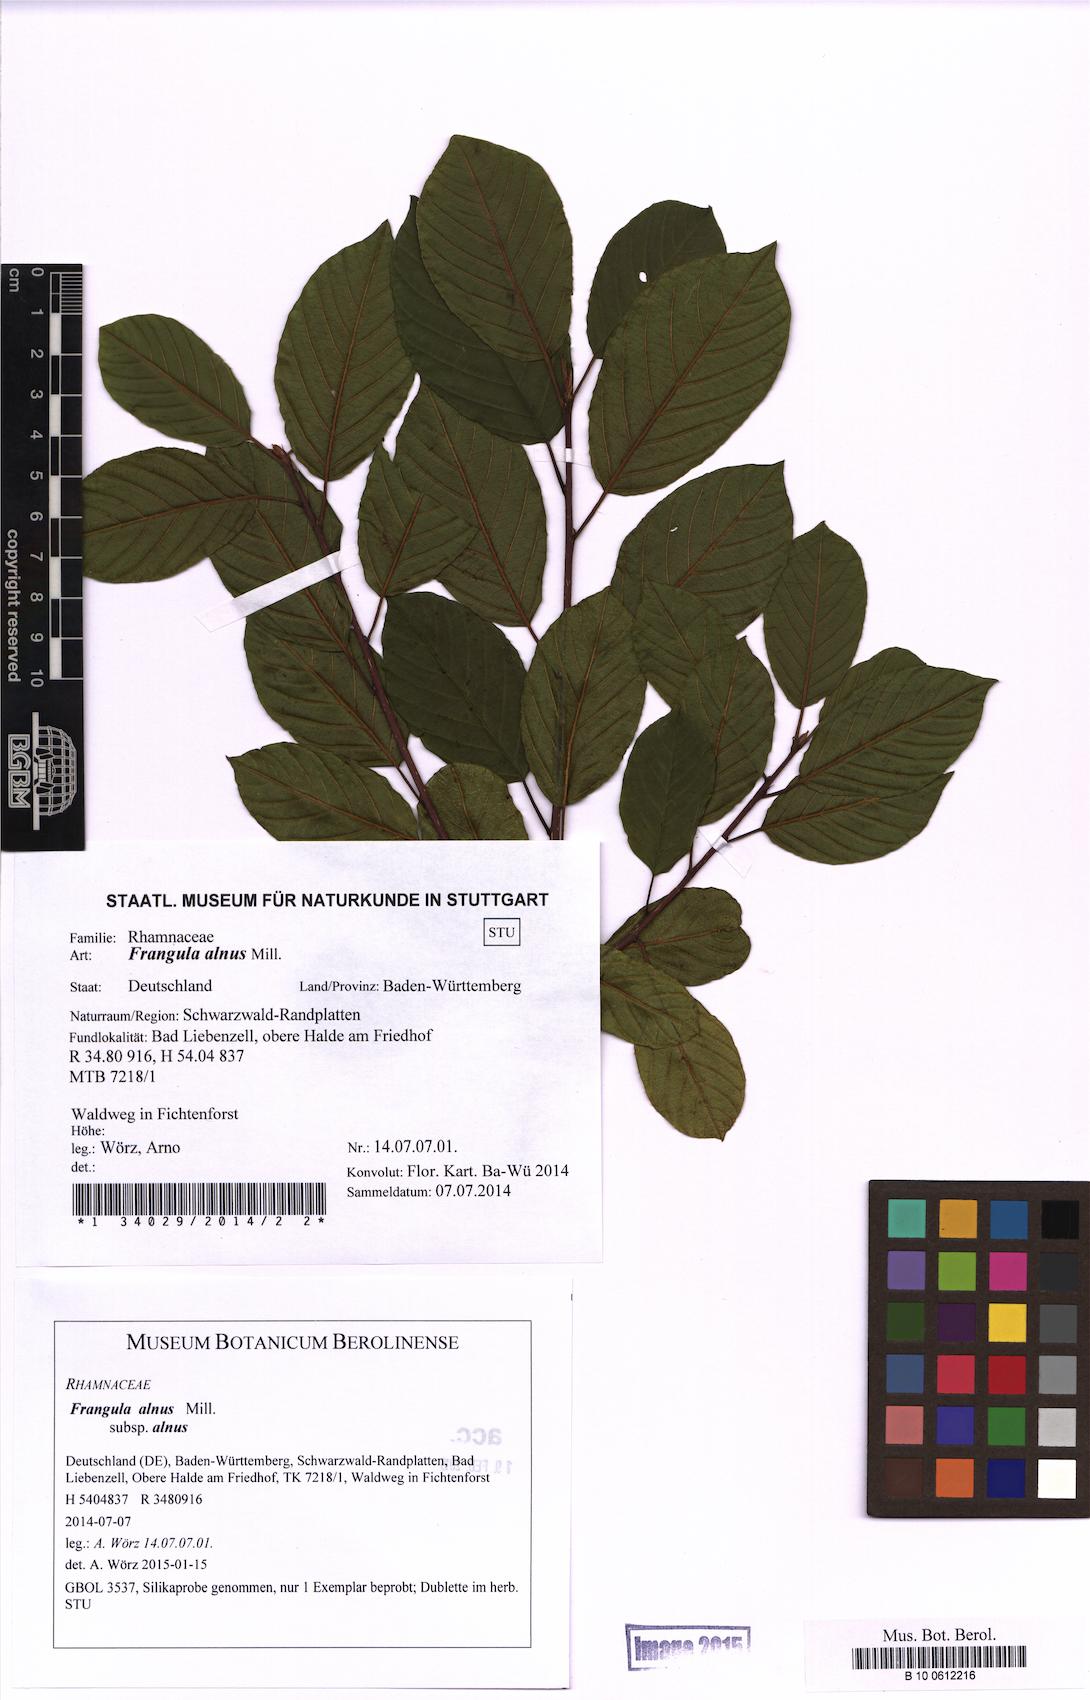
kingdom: Plantae
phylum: Tracheophyta
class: Magnoliopsida
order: Rosales
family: Rhamnaceae
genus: Frangula
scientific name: Frangula alnus
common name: Alder buckthorn
